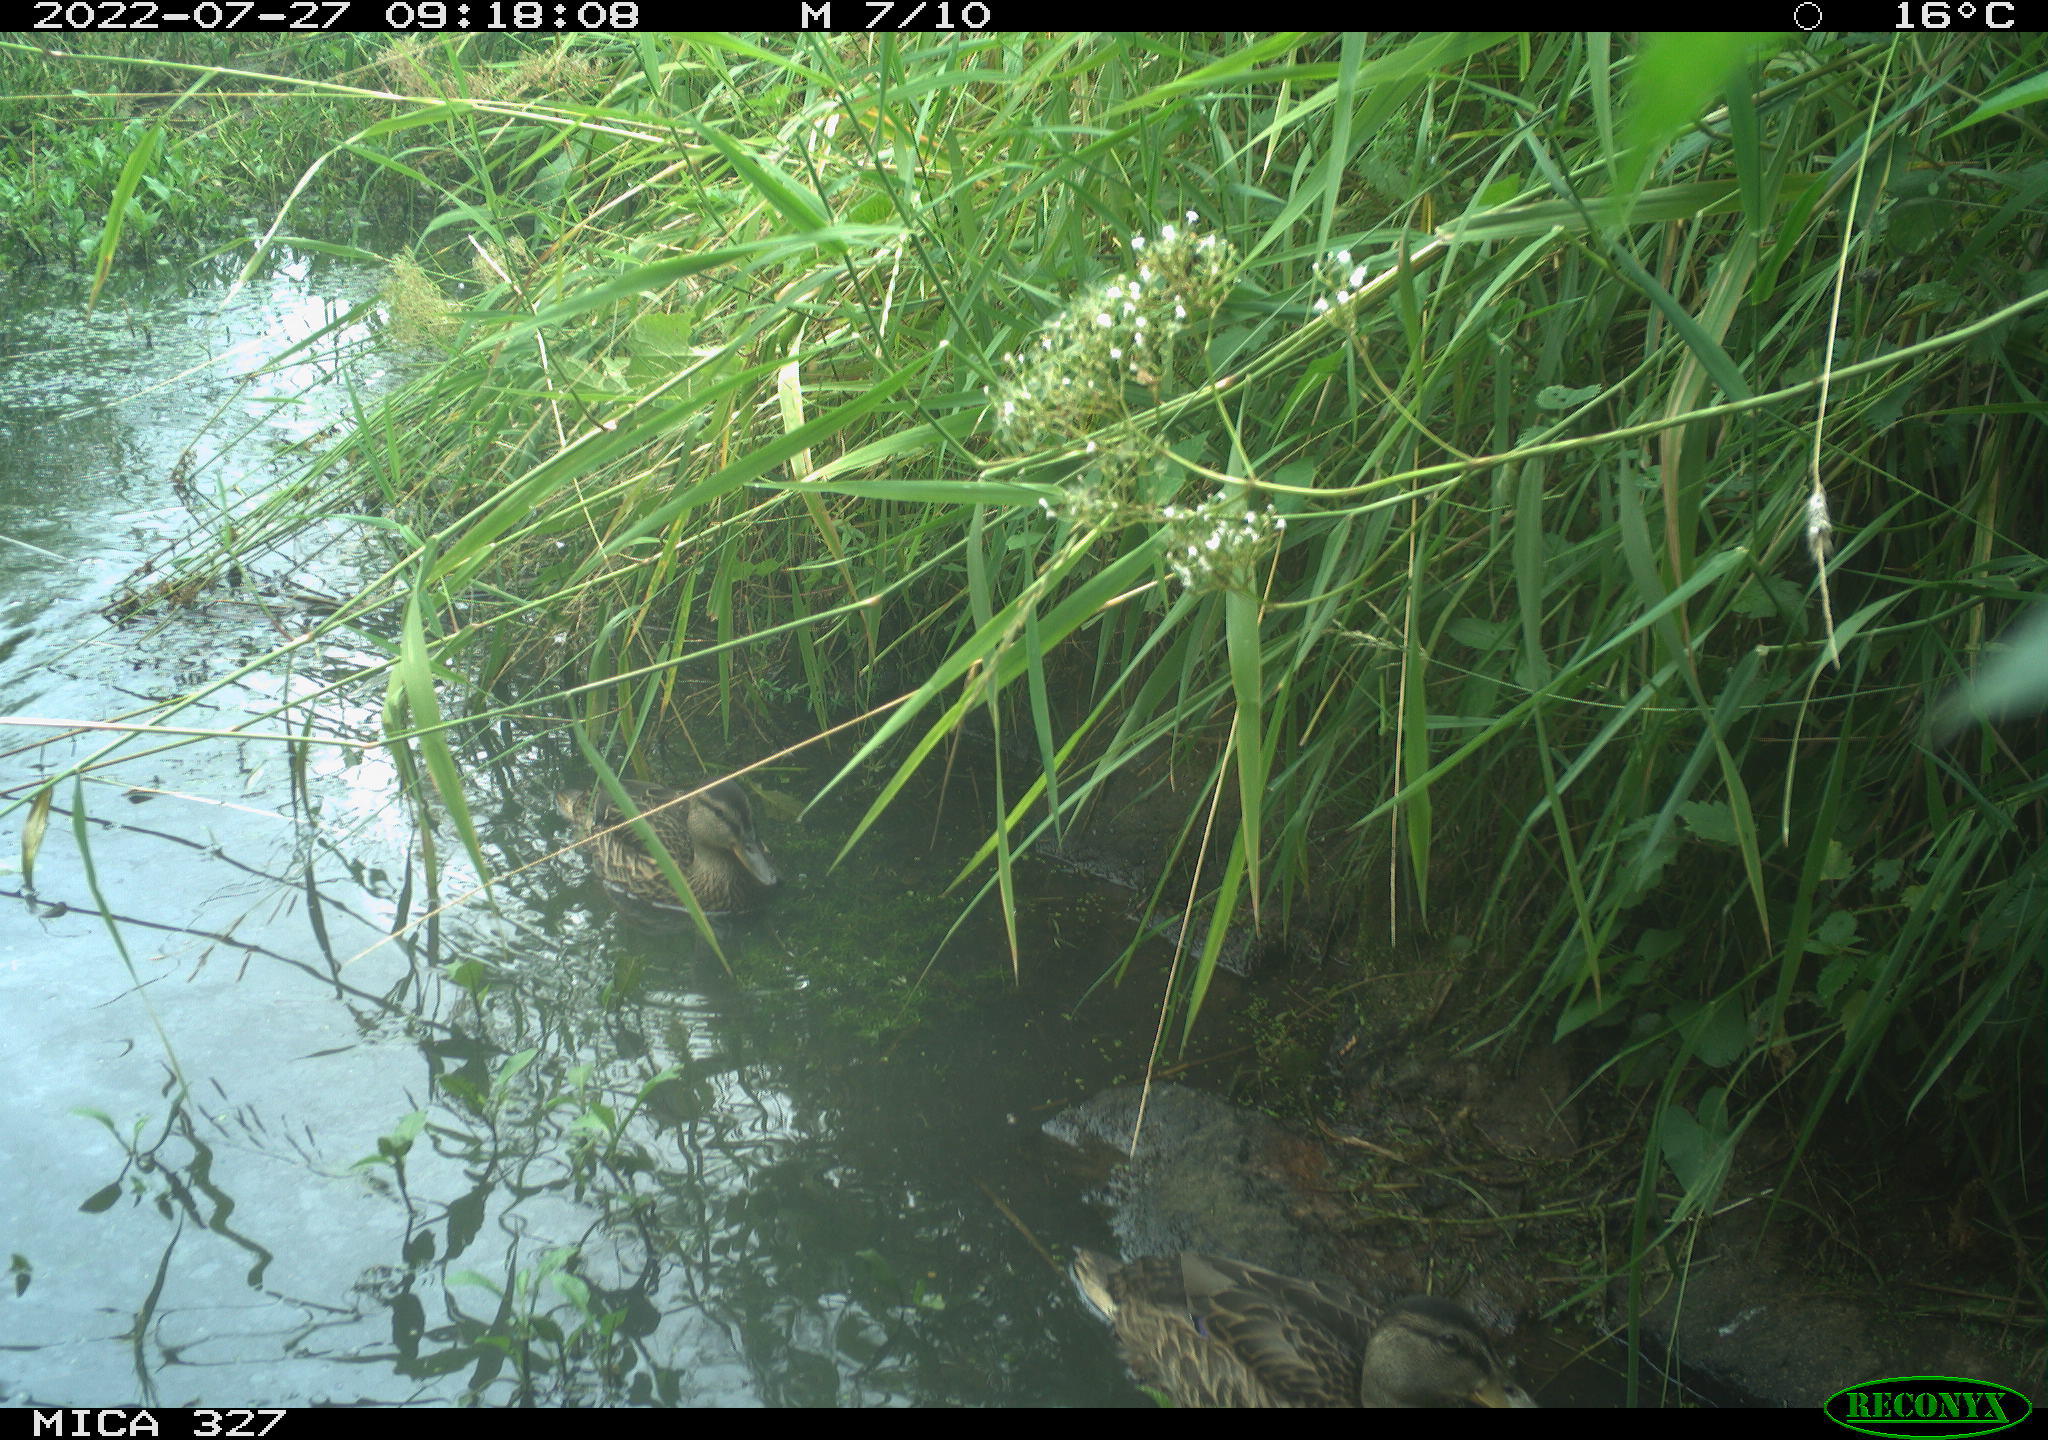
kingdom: Animalia
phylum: Chordata
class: Aves
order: Anseriformes
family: Anatidae
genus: Anas
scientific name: Anas
